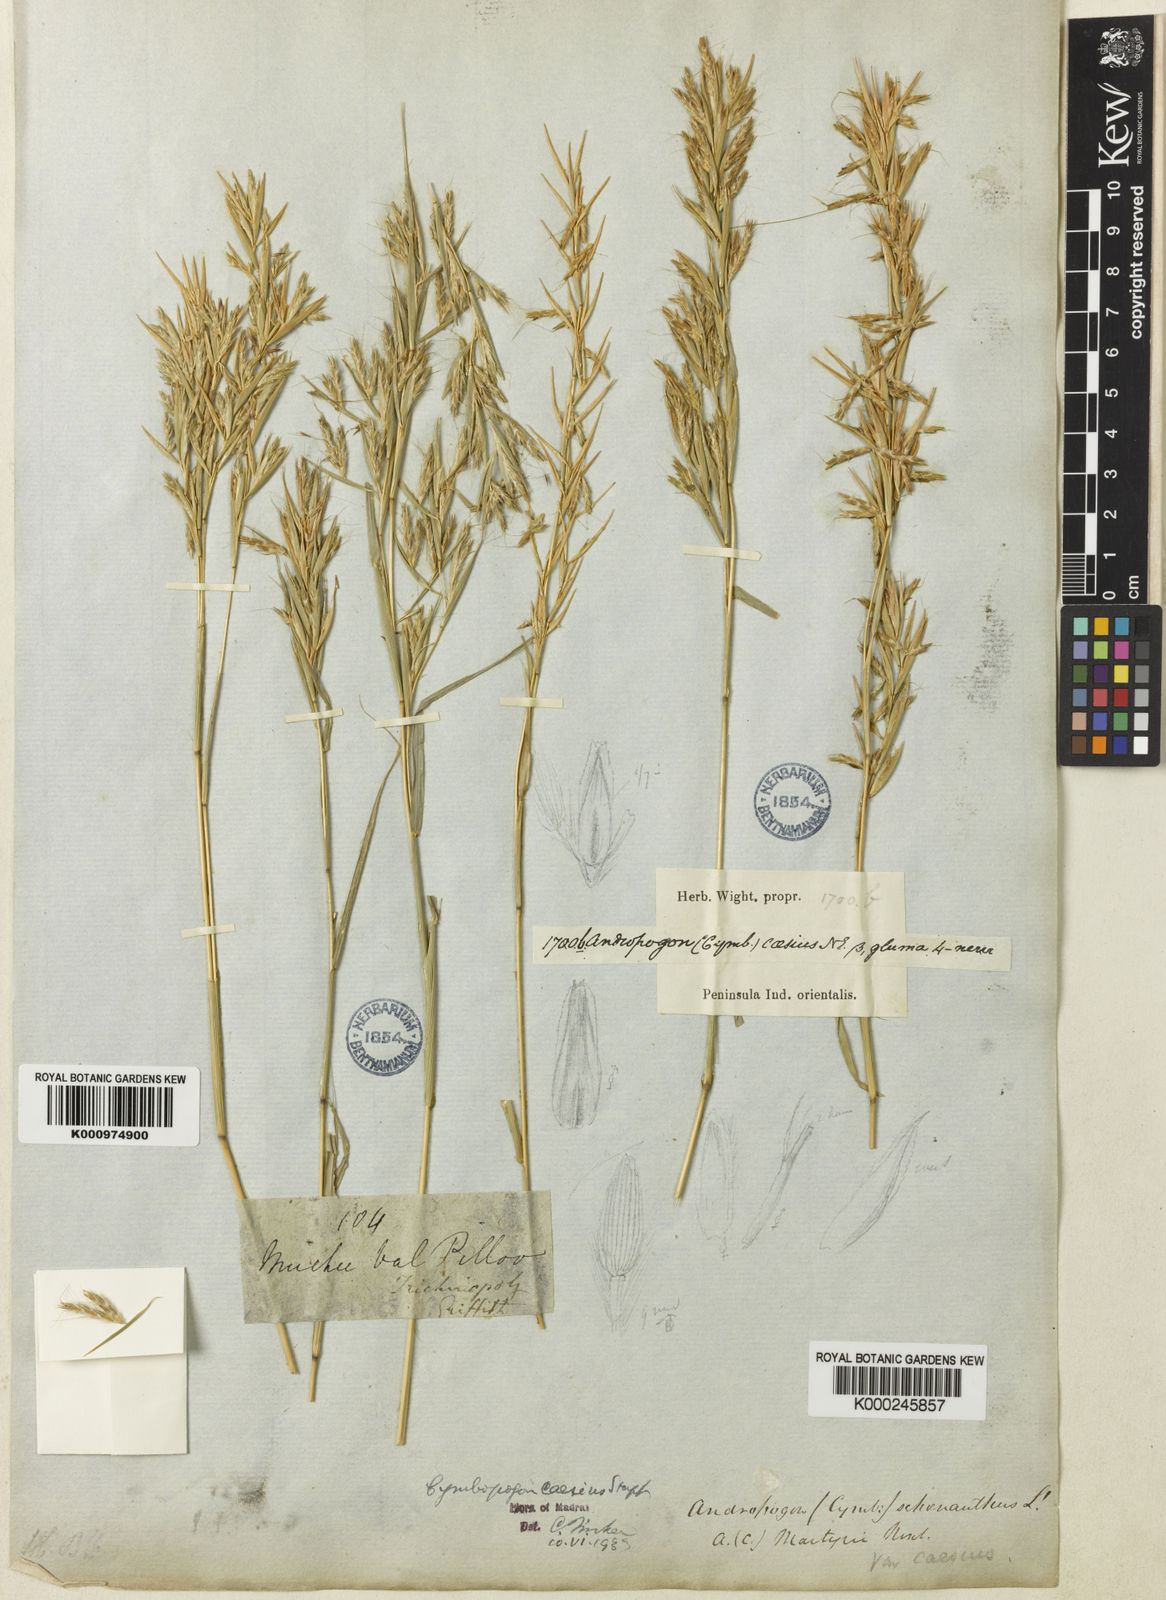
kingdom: Plantae
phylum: Tracheophyta
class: Liliopsida
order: Poales
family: Poaceae
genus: Cymbopogon
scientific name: Cymbopogon caesius
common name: Kachi grass
